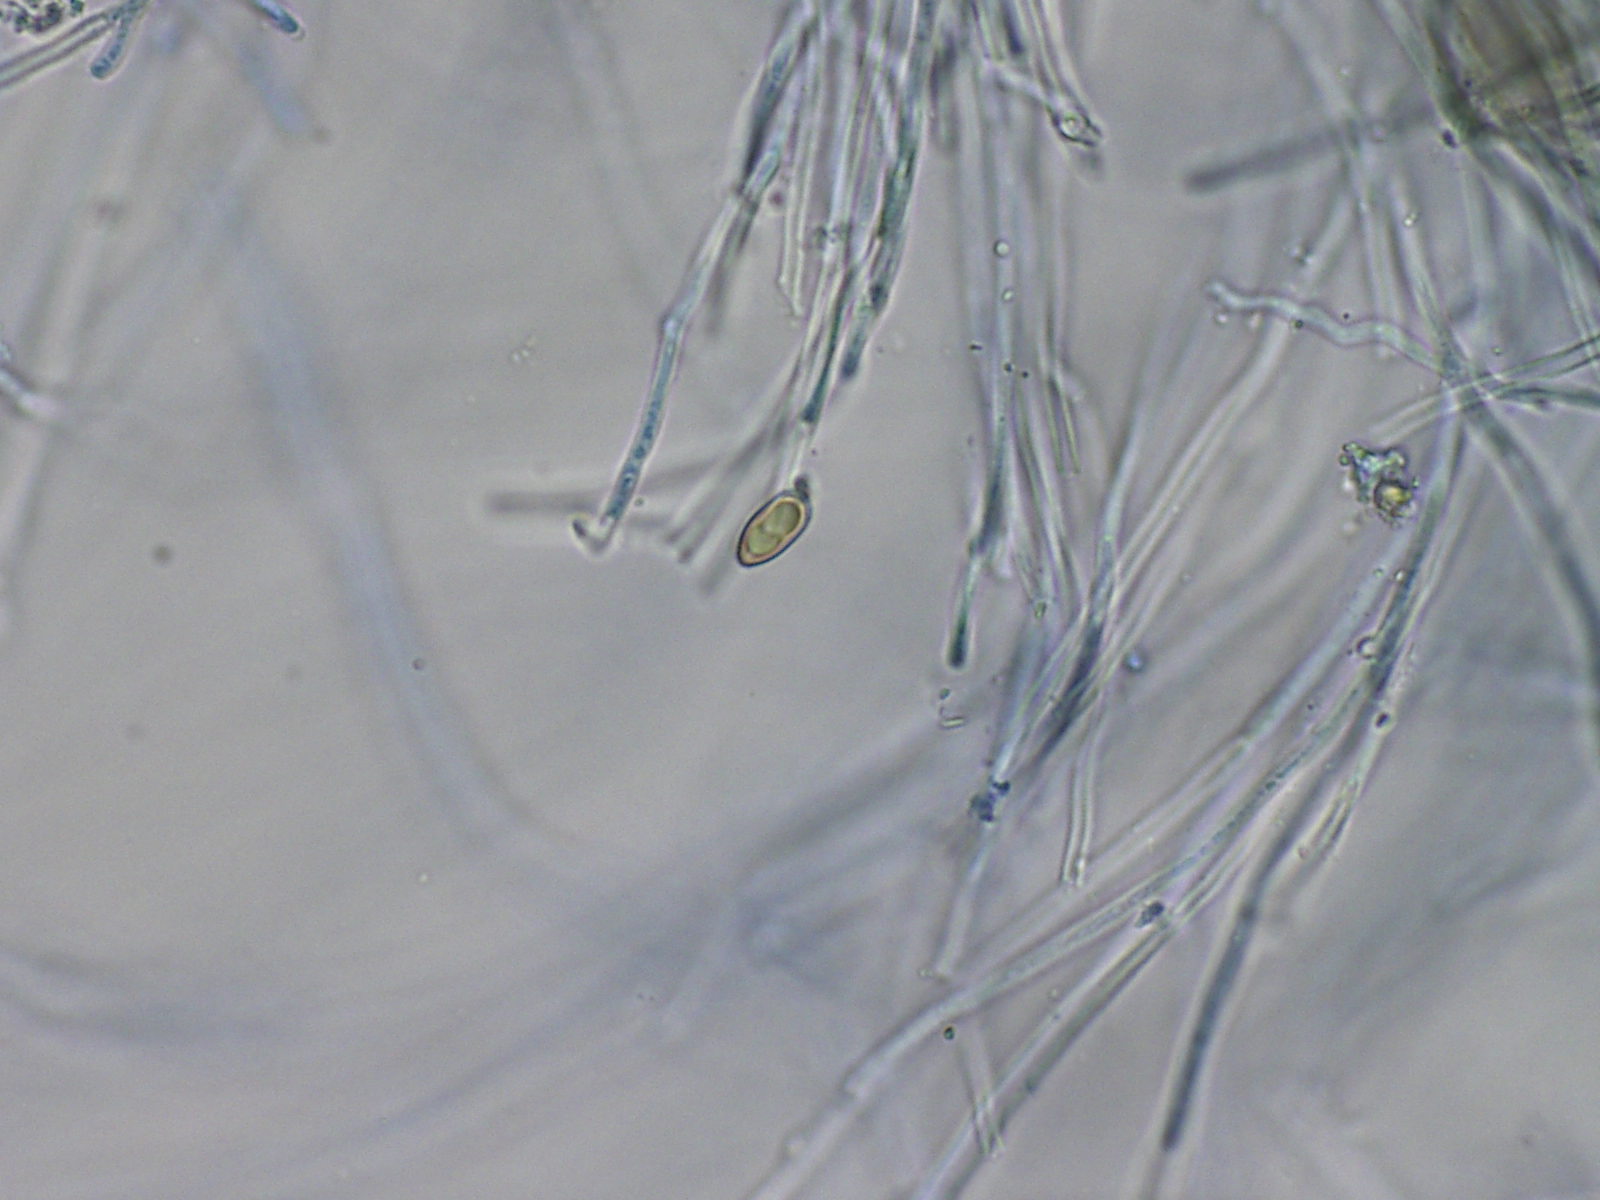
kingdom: Fungi
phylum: Basidiomycota
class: Dacrymycetes
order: Dacrymycetales
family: Dacrymycetaceae
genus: Calocera
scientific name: Calocera viscosa
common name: almindelig guldgaffel
